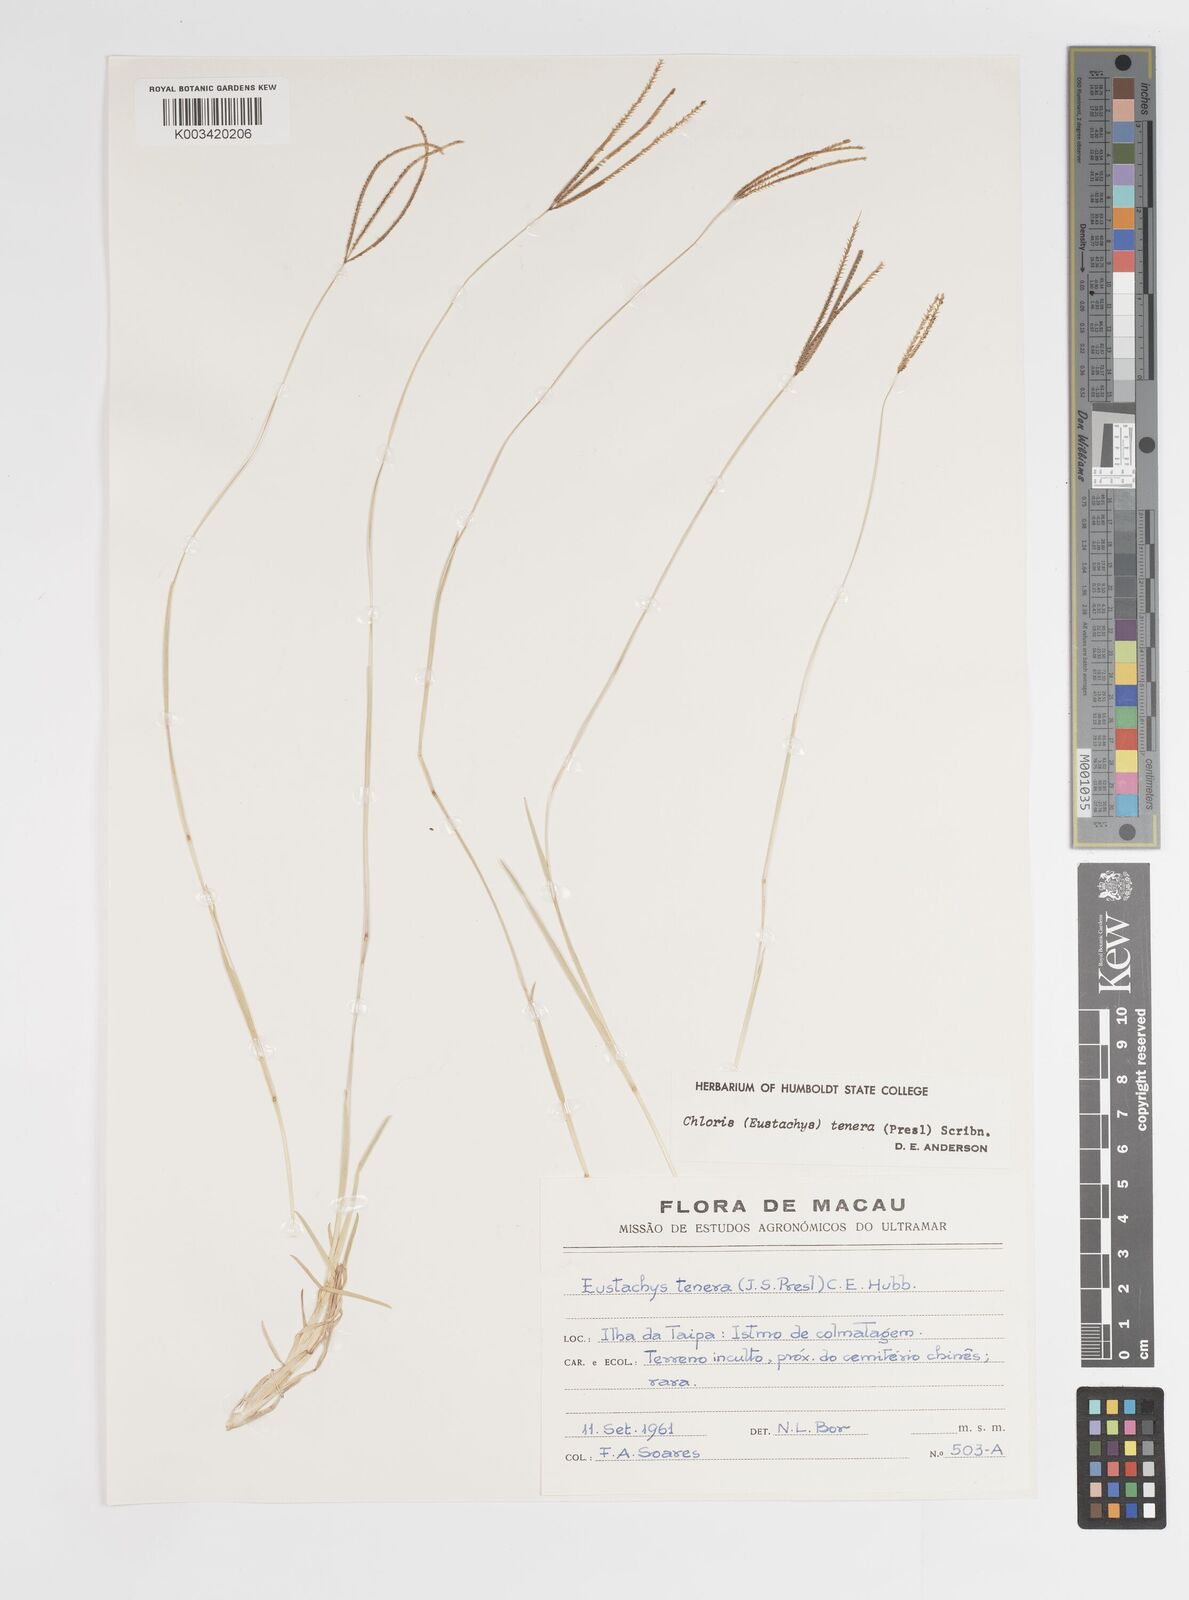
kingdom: Plantae
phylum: Tracheophyta
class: Liliopsida
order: Poales
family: Poaceae
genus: Eustachys
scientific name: Eustachys tenera
